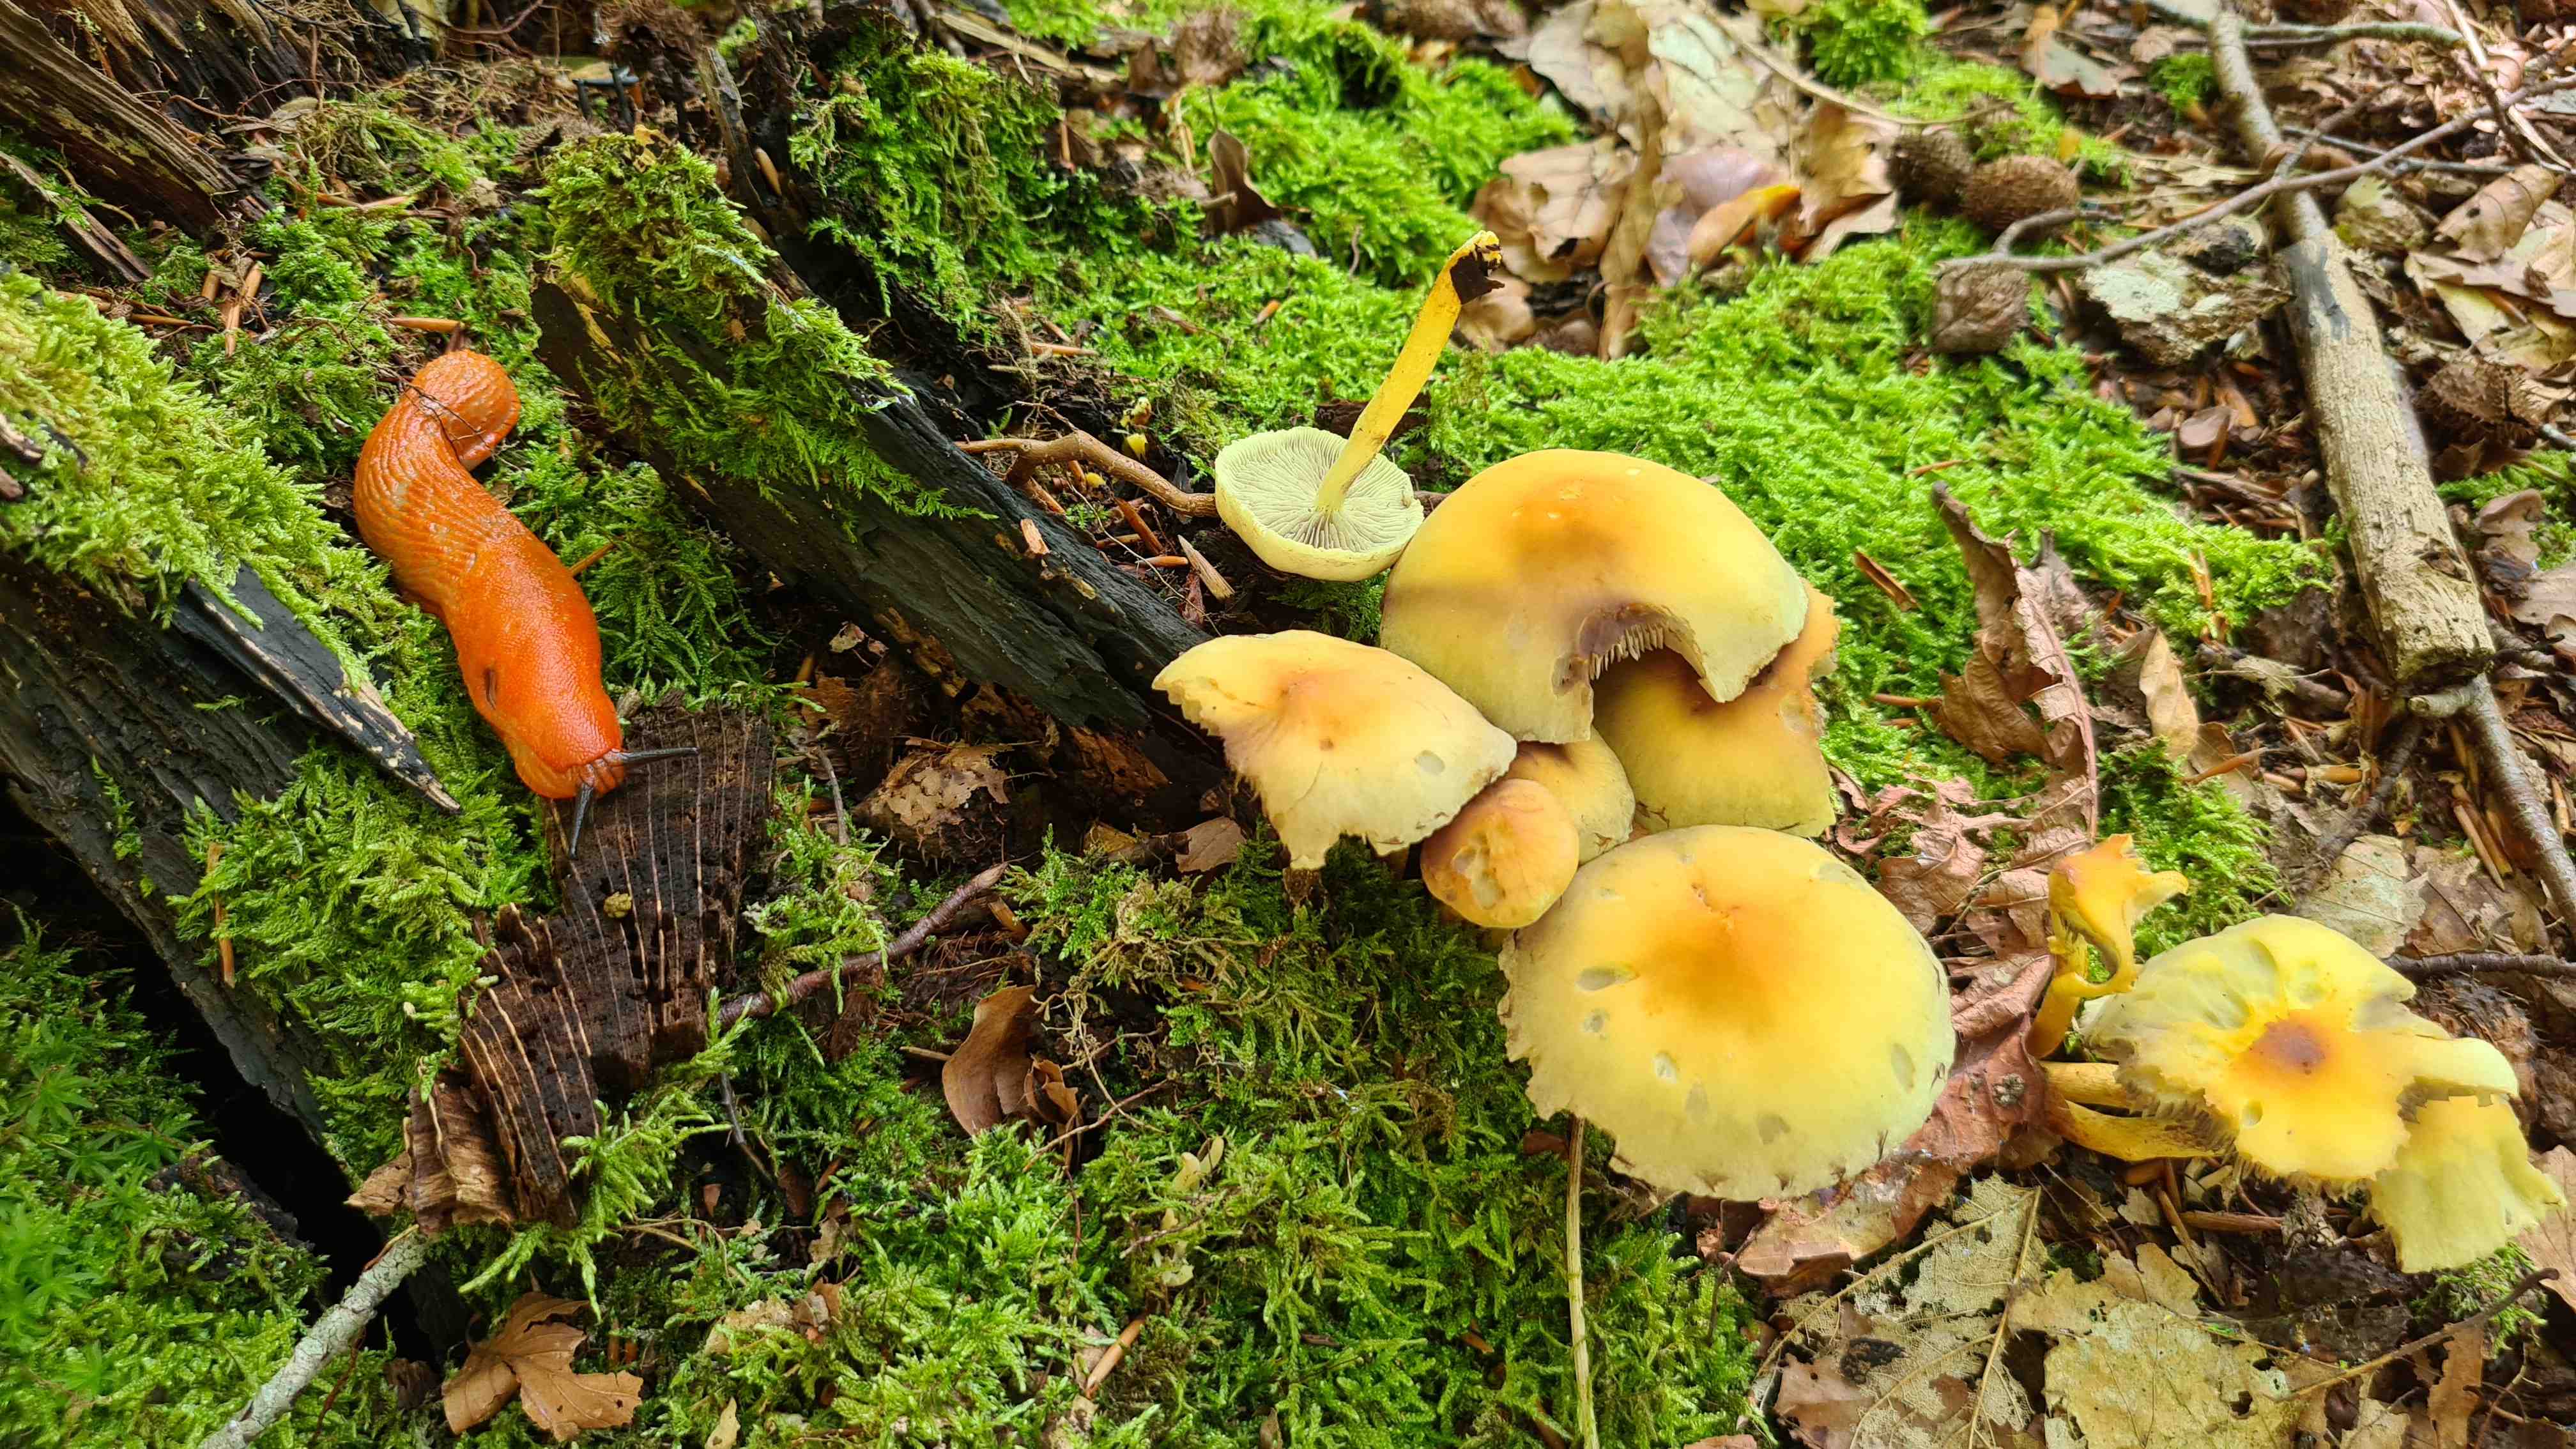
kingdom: Fungi
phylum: Basidiomycota
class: Agaricomycetes
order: Agaricales
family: Strophariaceae
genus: Hypholoma
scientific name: Hypholoma fasciculare
